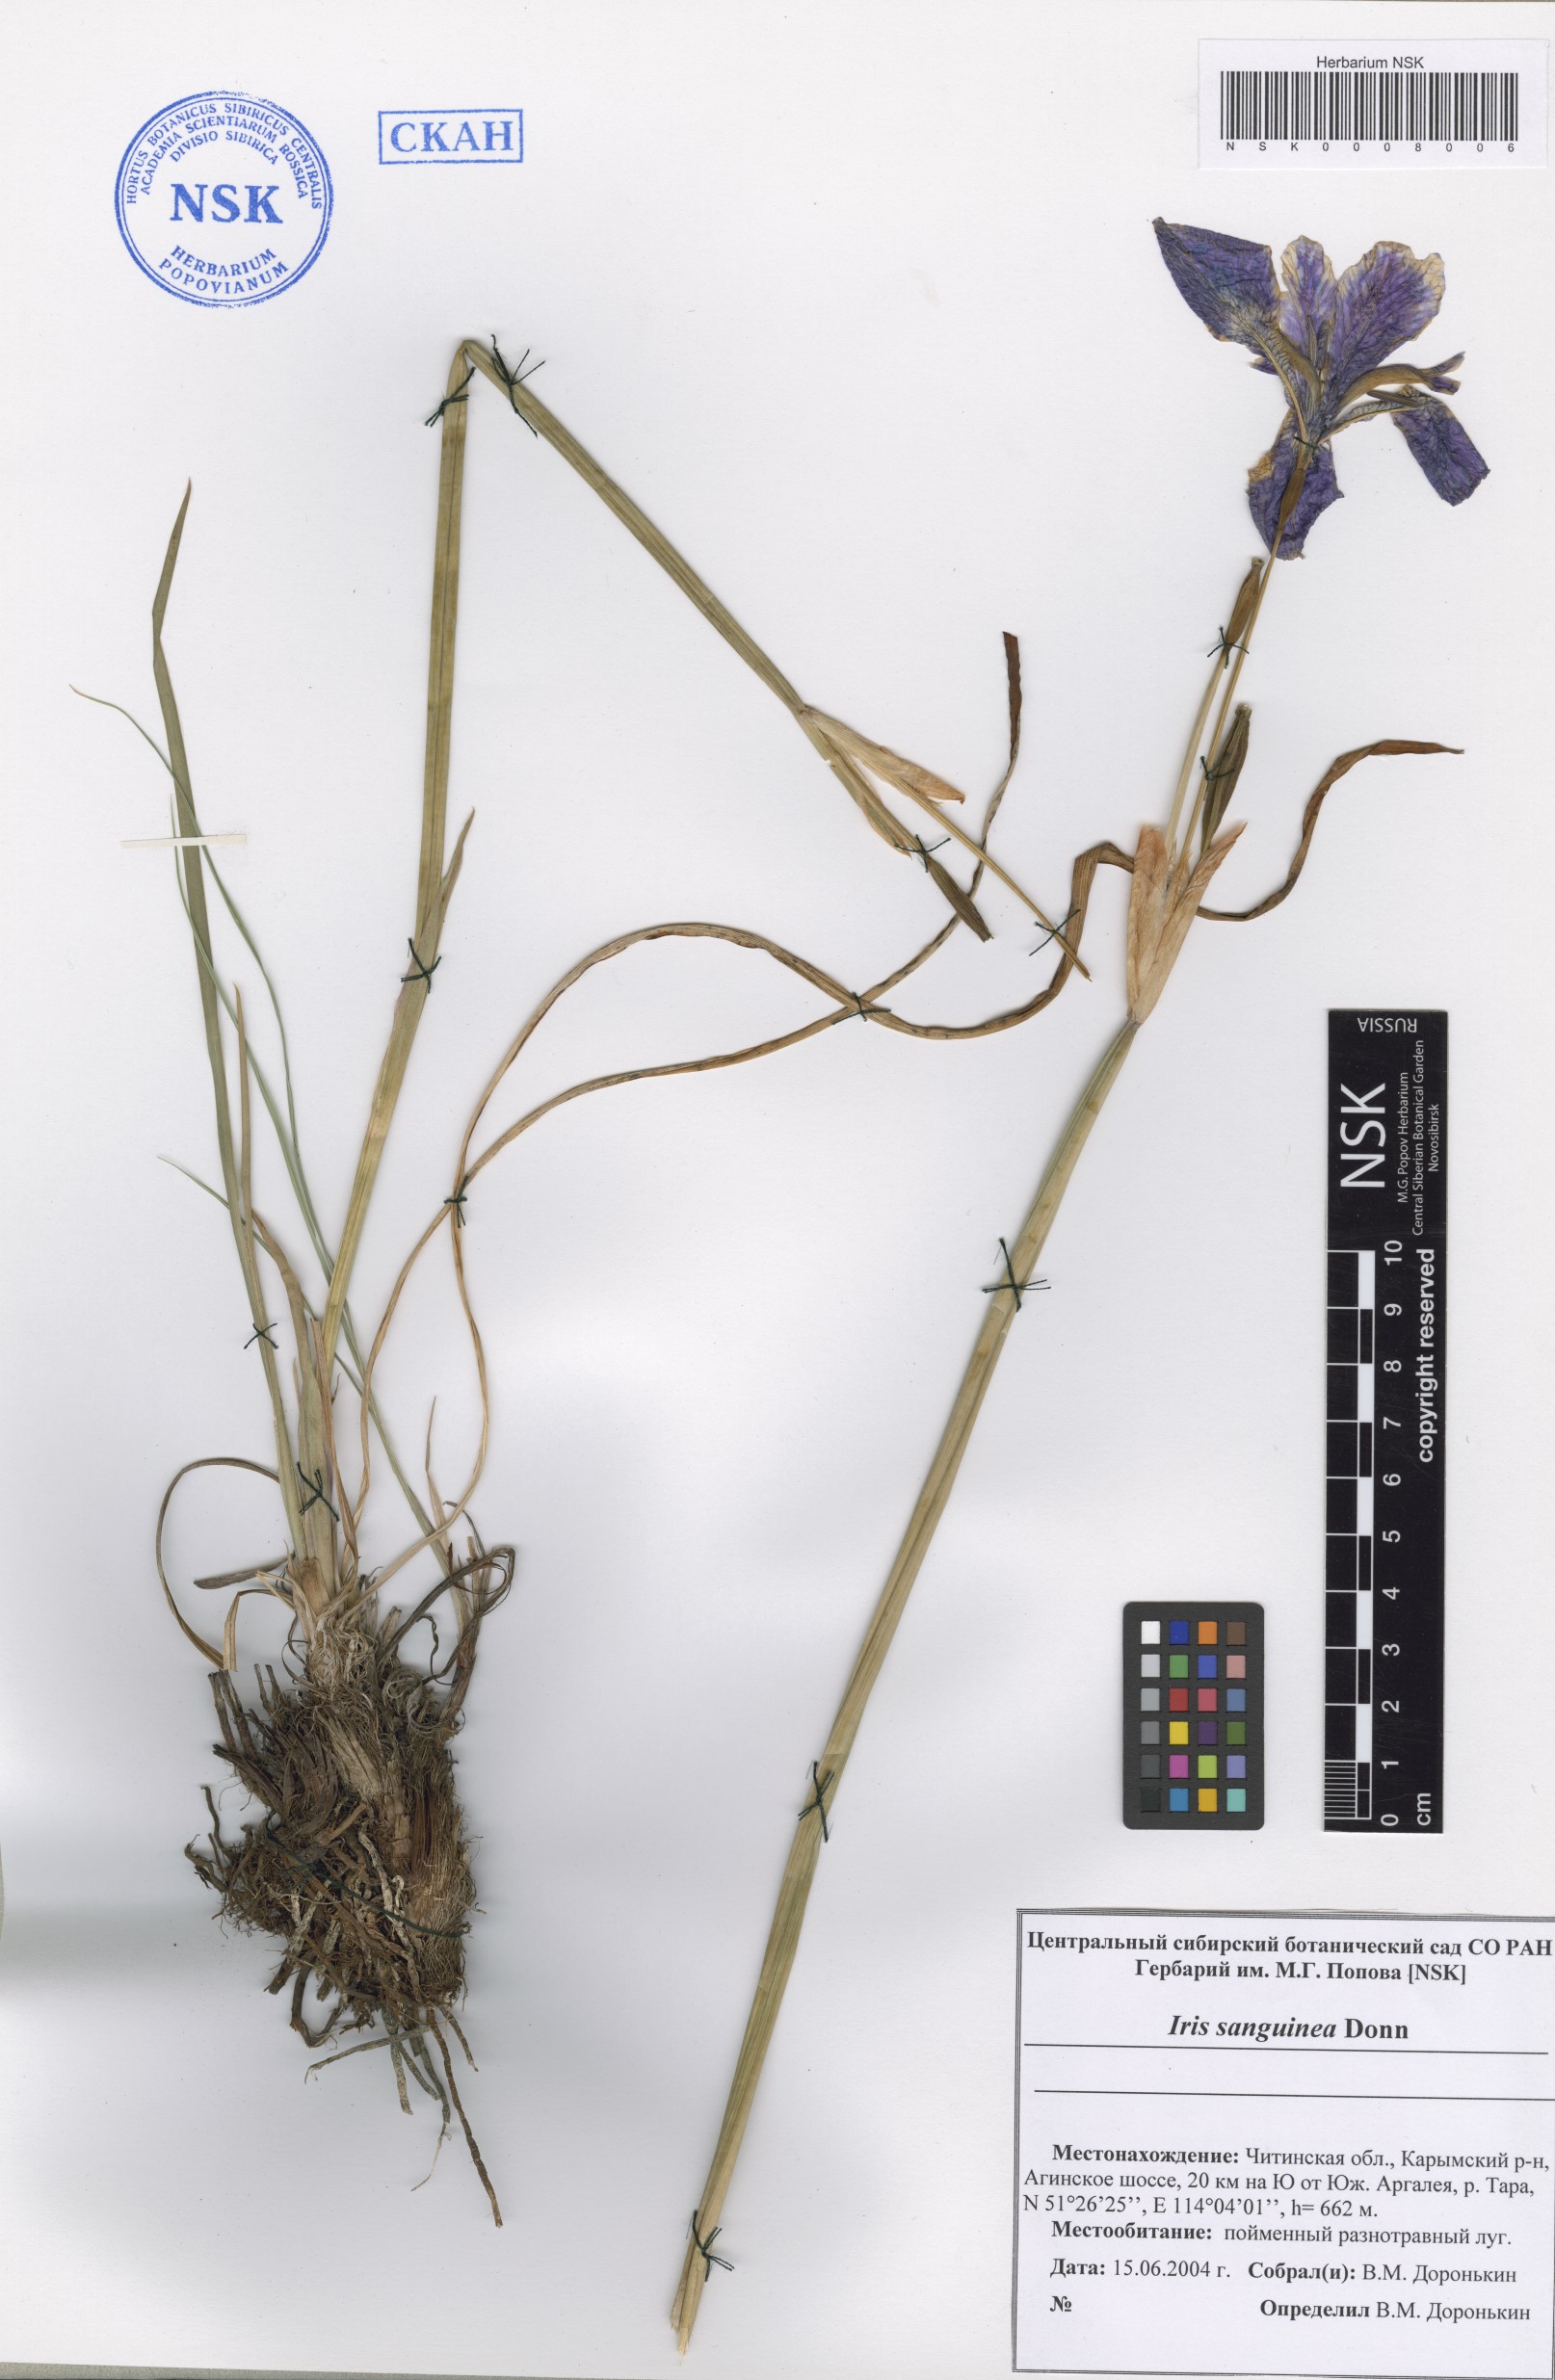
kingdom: Plantae
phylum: Tracheophyta
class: Liliopsida
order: Asparagales
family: Iridaceae
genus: Iris
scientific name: Iris sanguinea
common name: Blood iris
